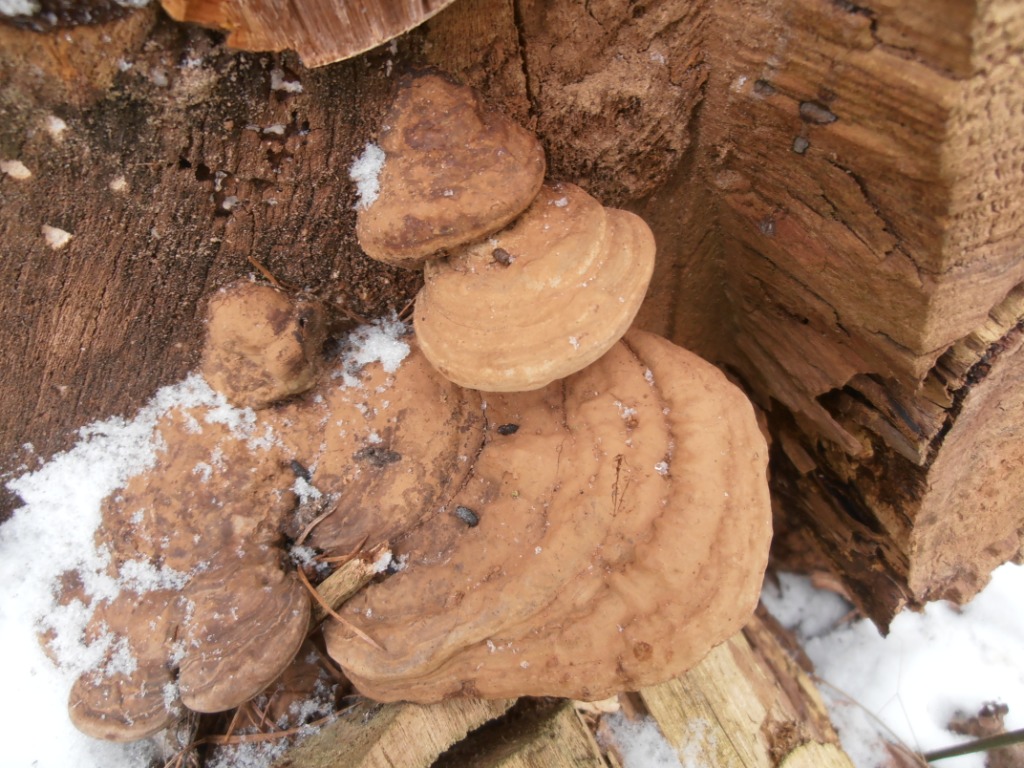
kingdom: Fungi
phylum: Basidiomycota
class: Agaricomycetes
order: Polyporales
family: Polyporaceae
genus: Trametes
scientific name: Trametes gibbosa
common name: puklet læderporesvamp
